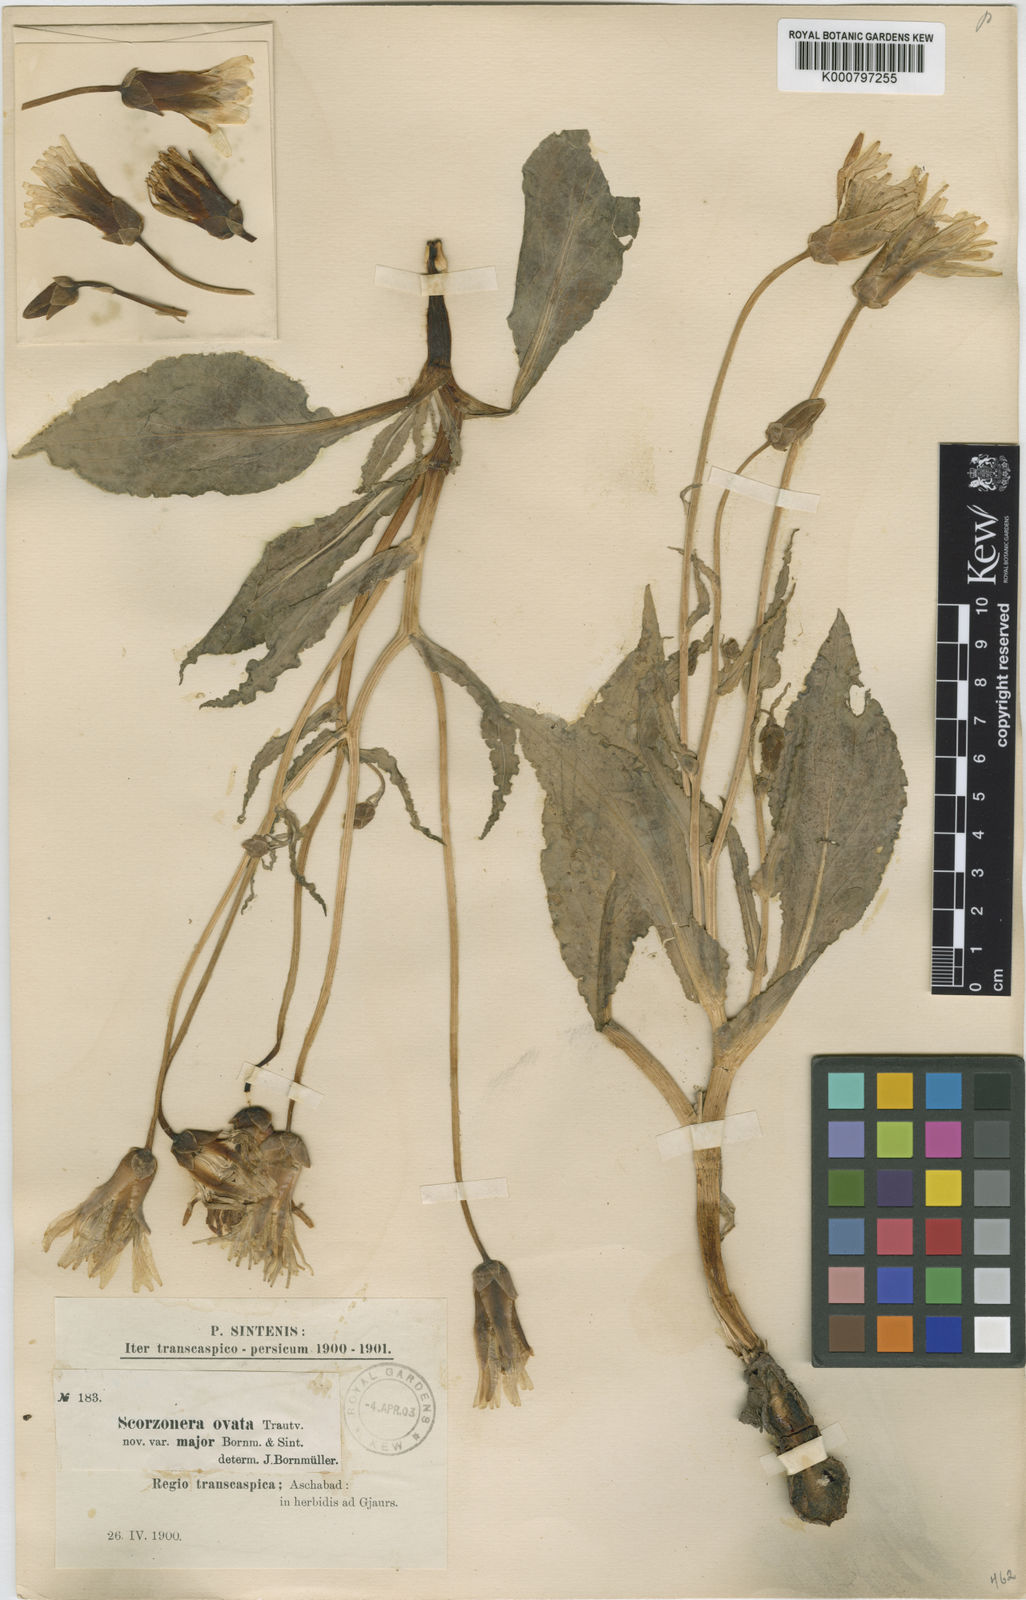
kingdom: Plantae
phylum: Tracheophyta
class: Magnoliopsida
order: Asterales
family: Asteraceae
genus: Pseudopodospermum
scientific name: Pseudopodospermum ovatum
